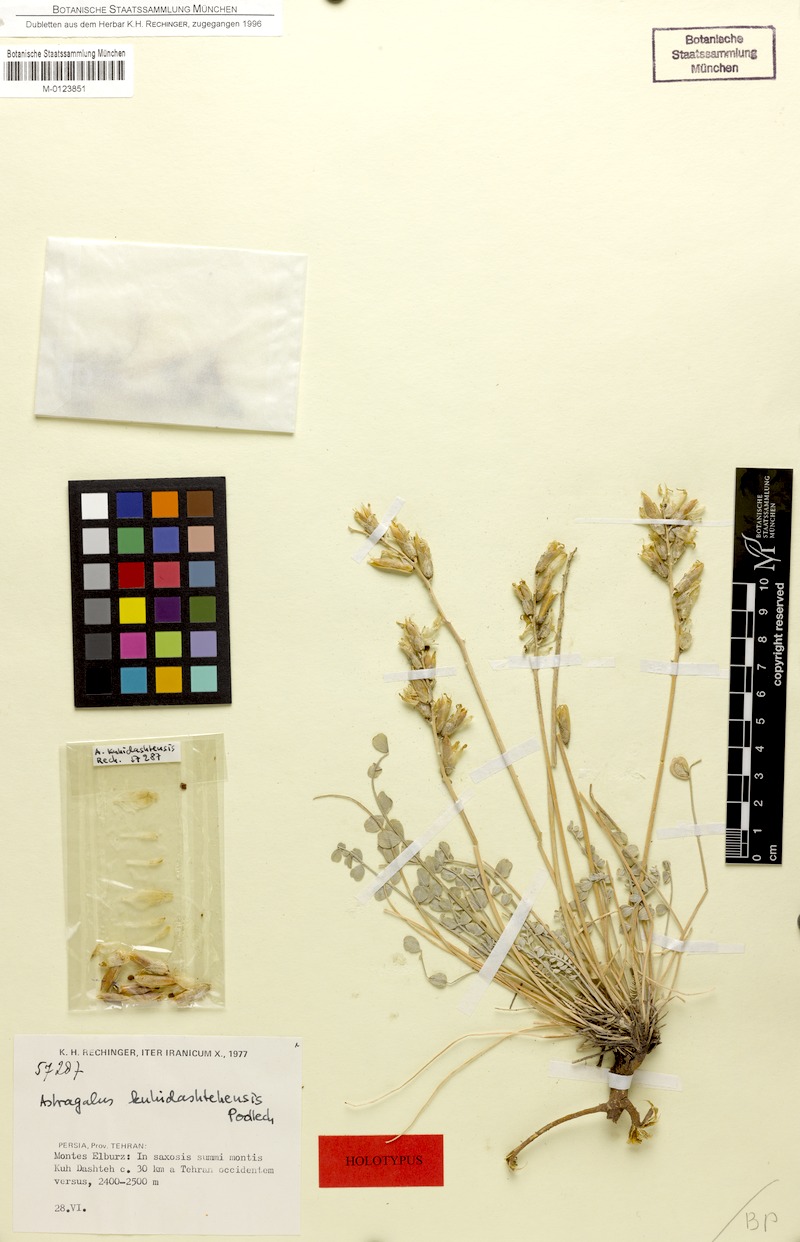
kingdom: Plantae
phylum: Tracheophyta
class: Magnoliopsida
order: Fabales
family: Fabaceae
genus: Astragalus
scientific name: Astragalus kuhidashtehensis
